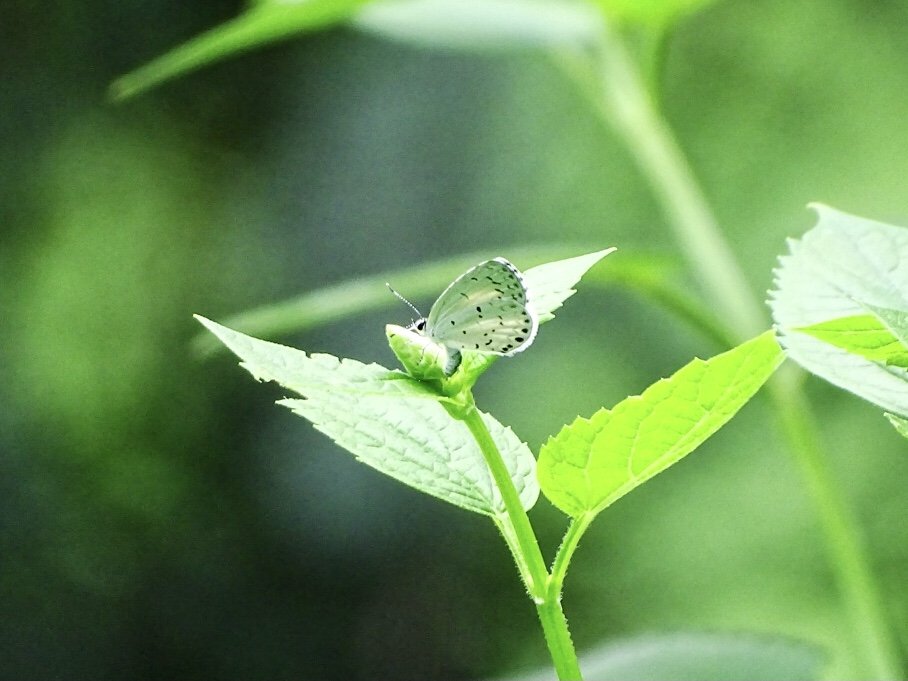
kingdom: Animalia
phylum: Arthropoda
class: Insecta
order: Lepidoptera
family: Lycaenidae
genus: Cyaniris
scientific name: Cyaniris neglecta
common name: Summer Azure
